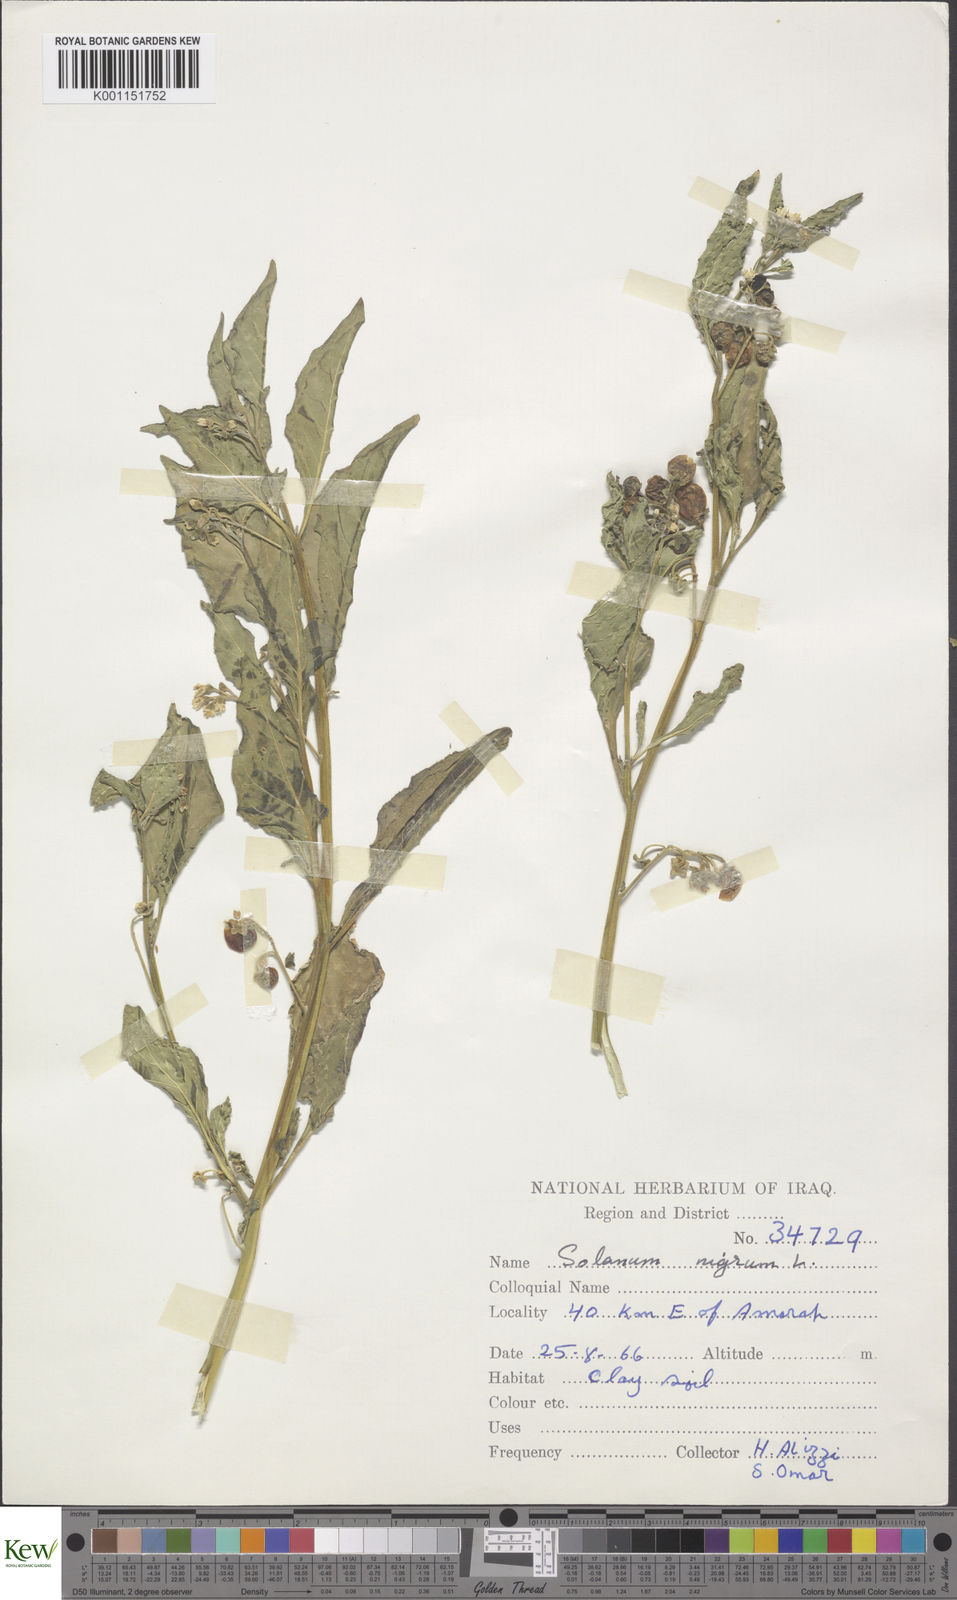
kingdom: Plantae
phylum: Tracheophyta
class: Magnoliopsida
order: Solanales
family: Solanaceae
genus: Solanum
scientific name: Solanum nigrum
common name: Black nightshade
